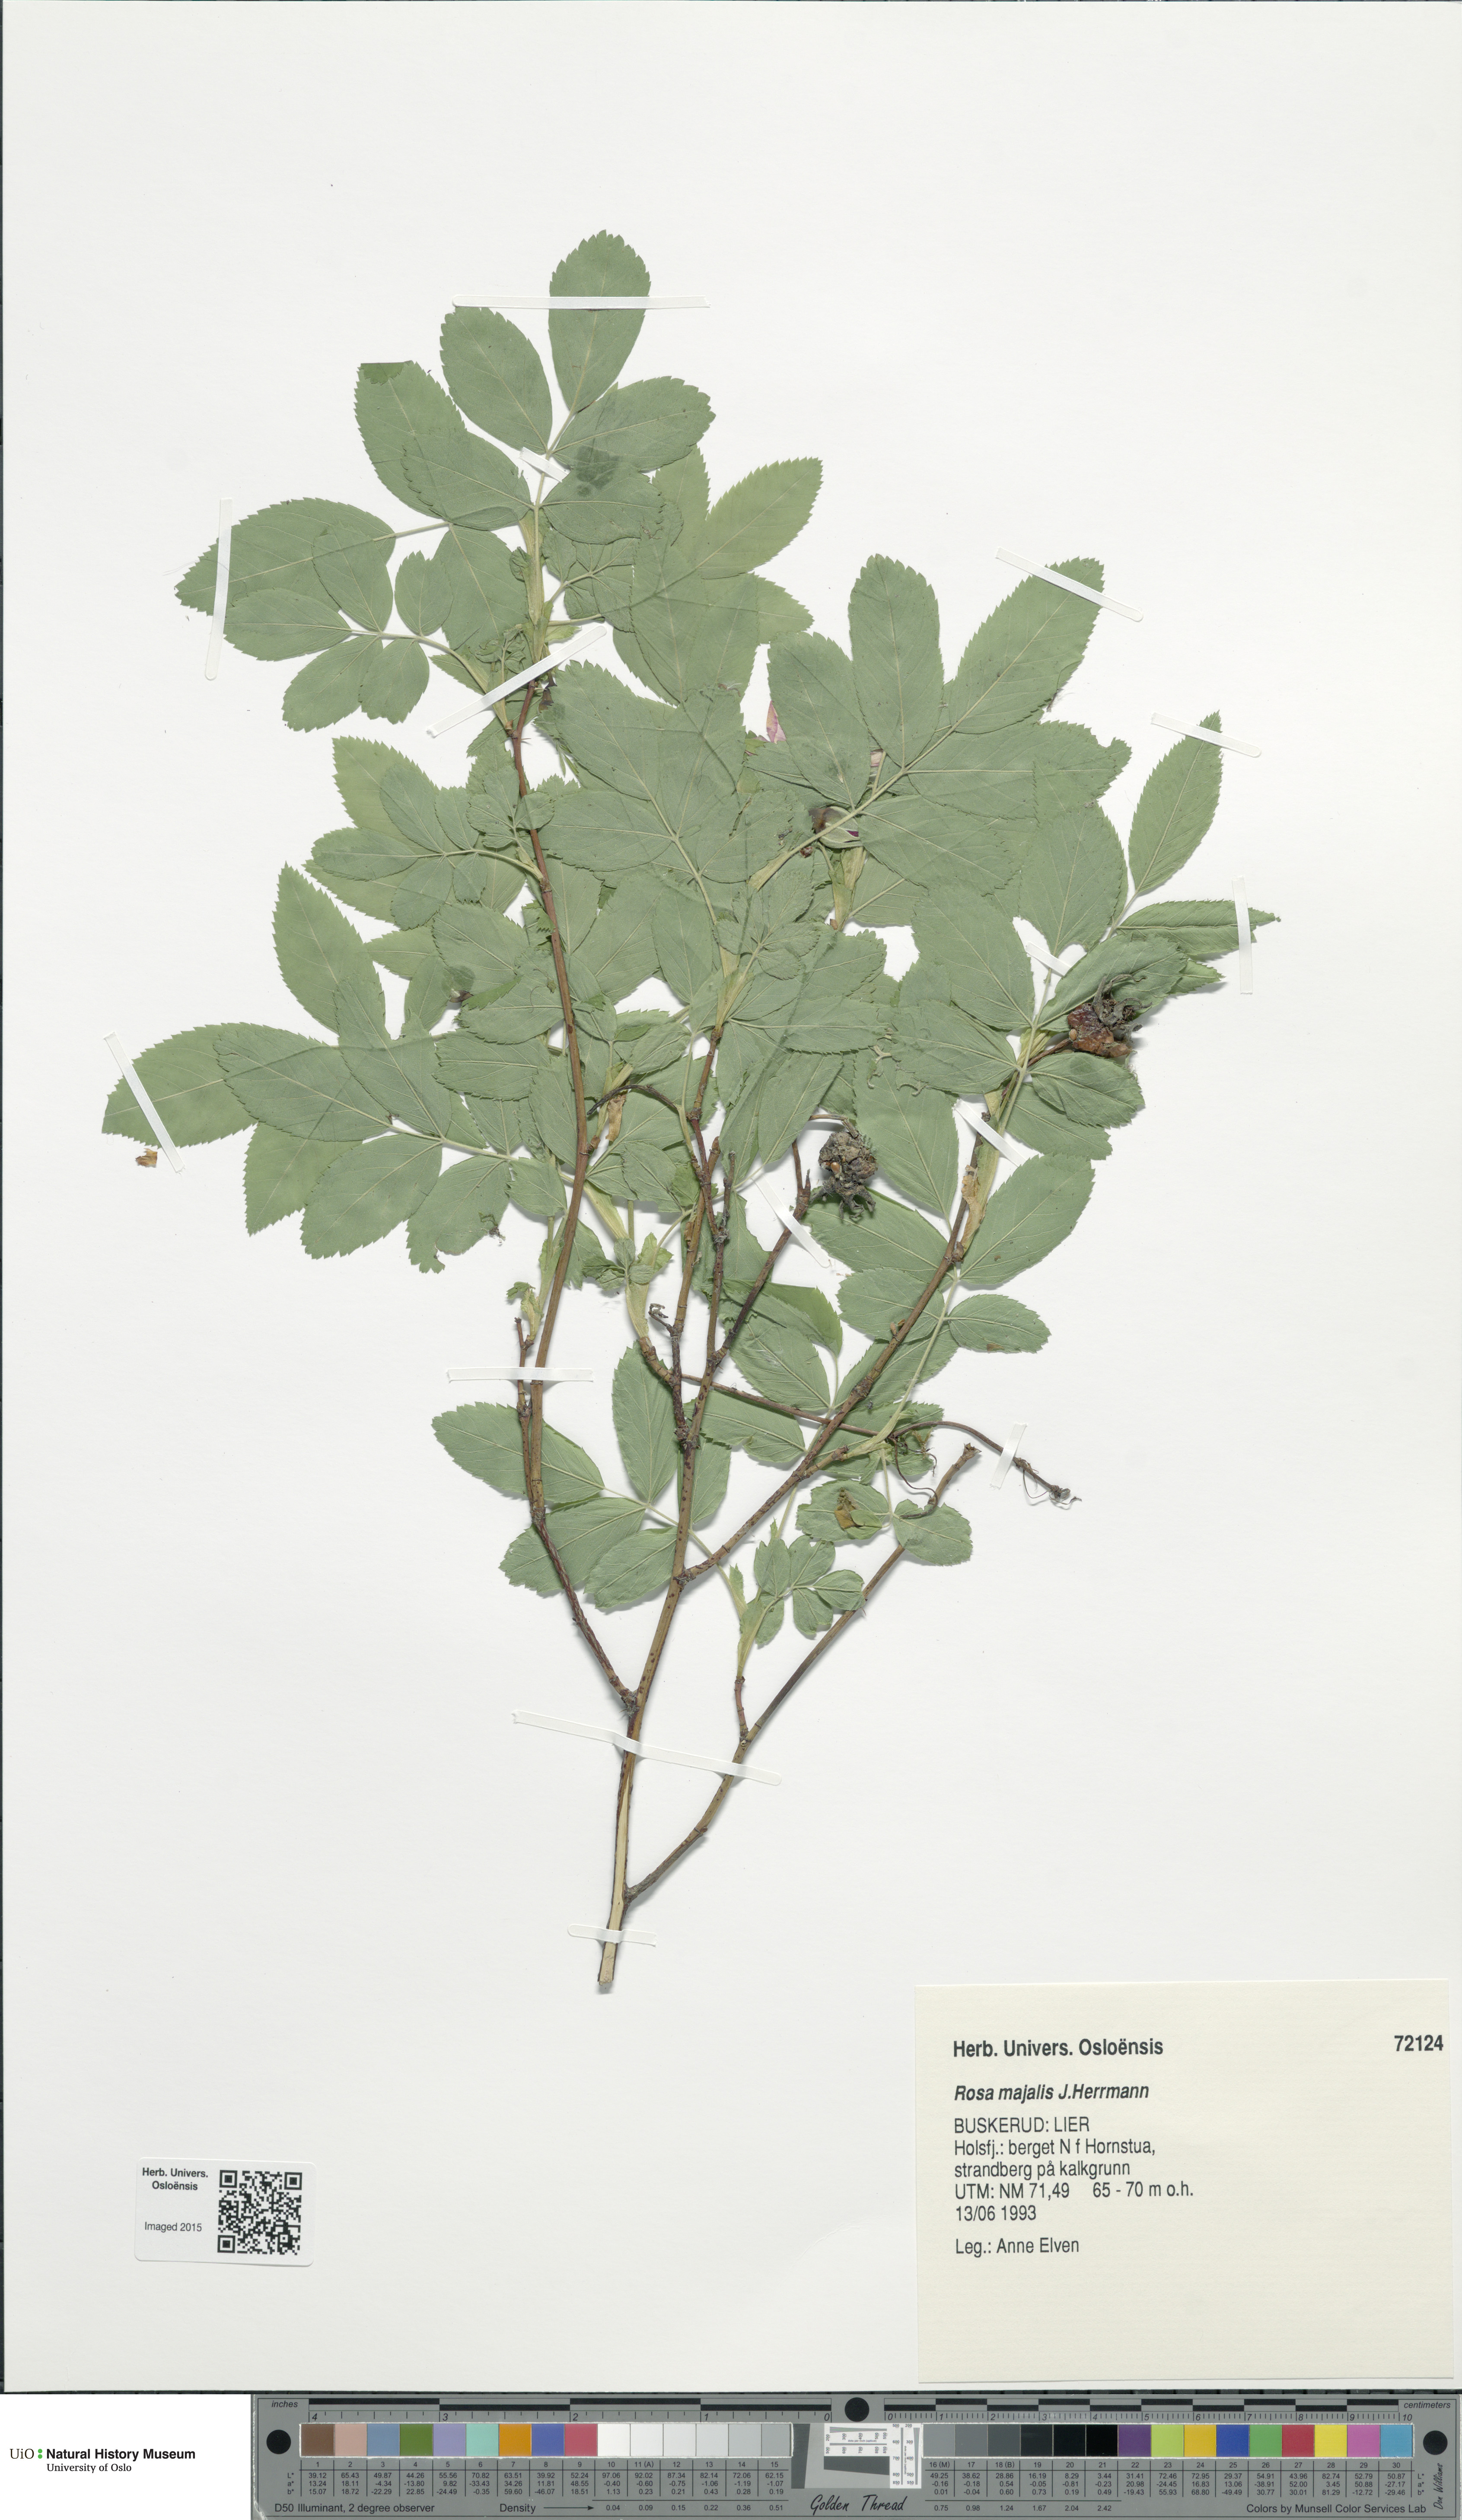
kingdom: Plantae
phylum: Tracheophyta
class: Magnoliopsida
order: Rosales
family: Rosaceae
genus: Rosa
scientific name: Rosa majalis
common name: Cinnamon rose
